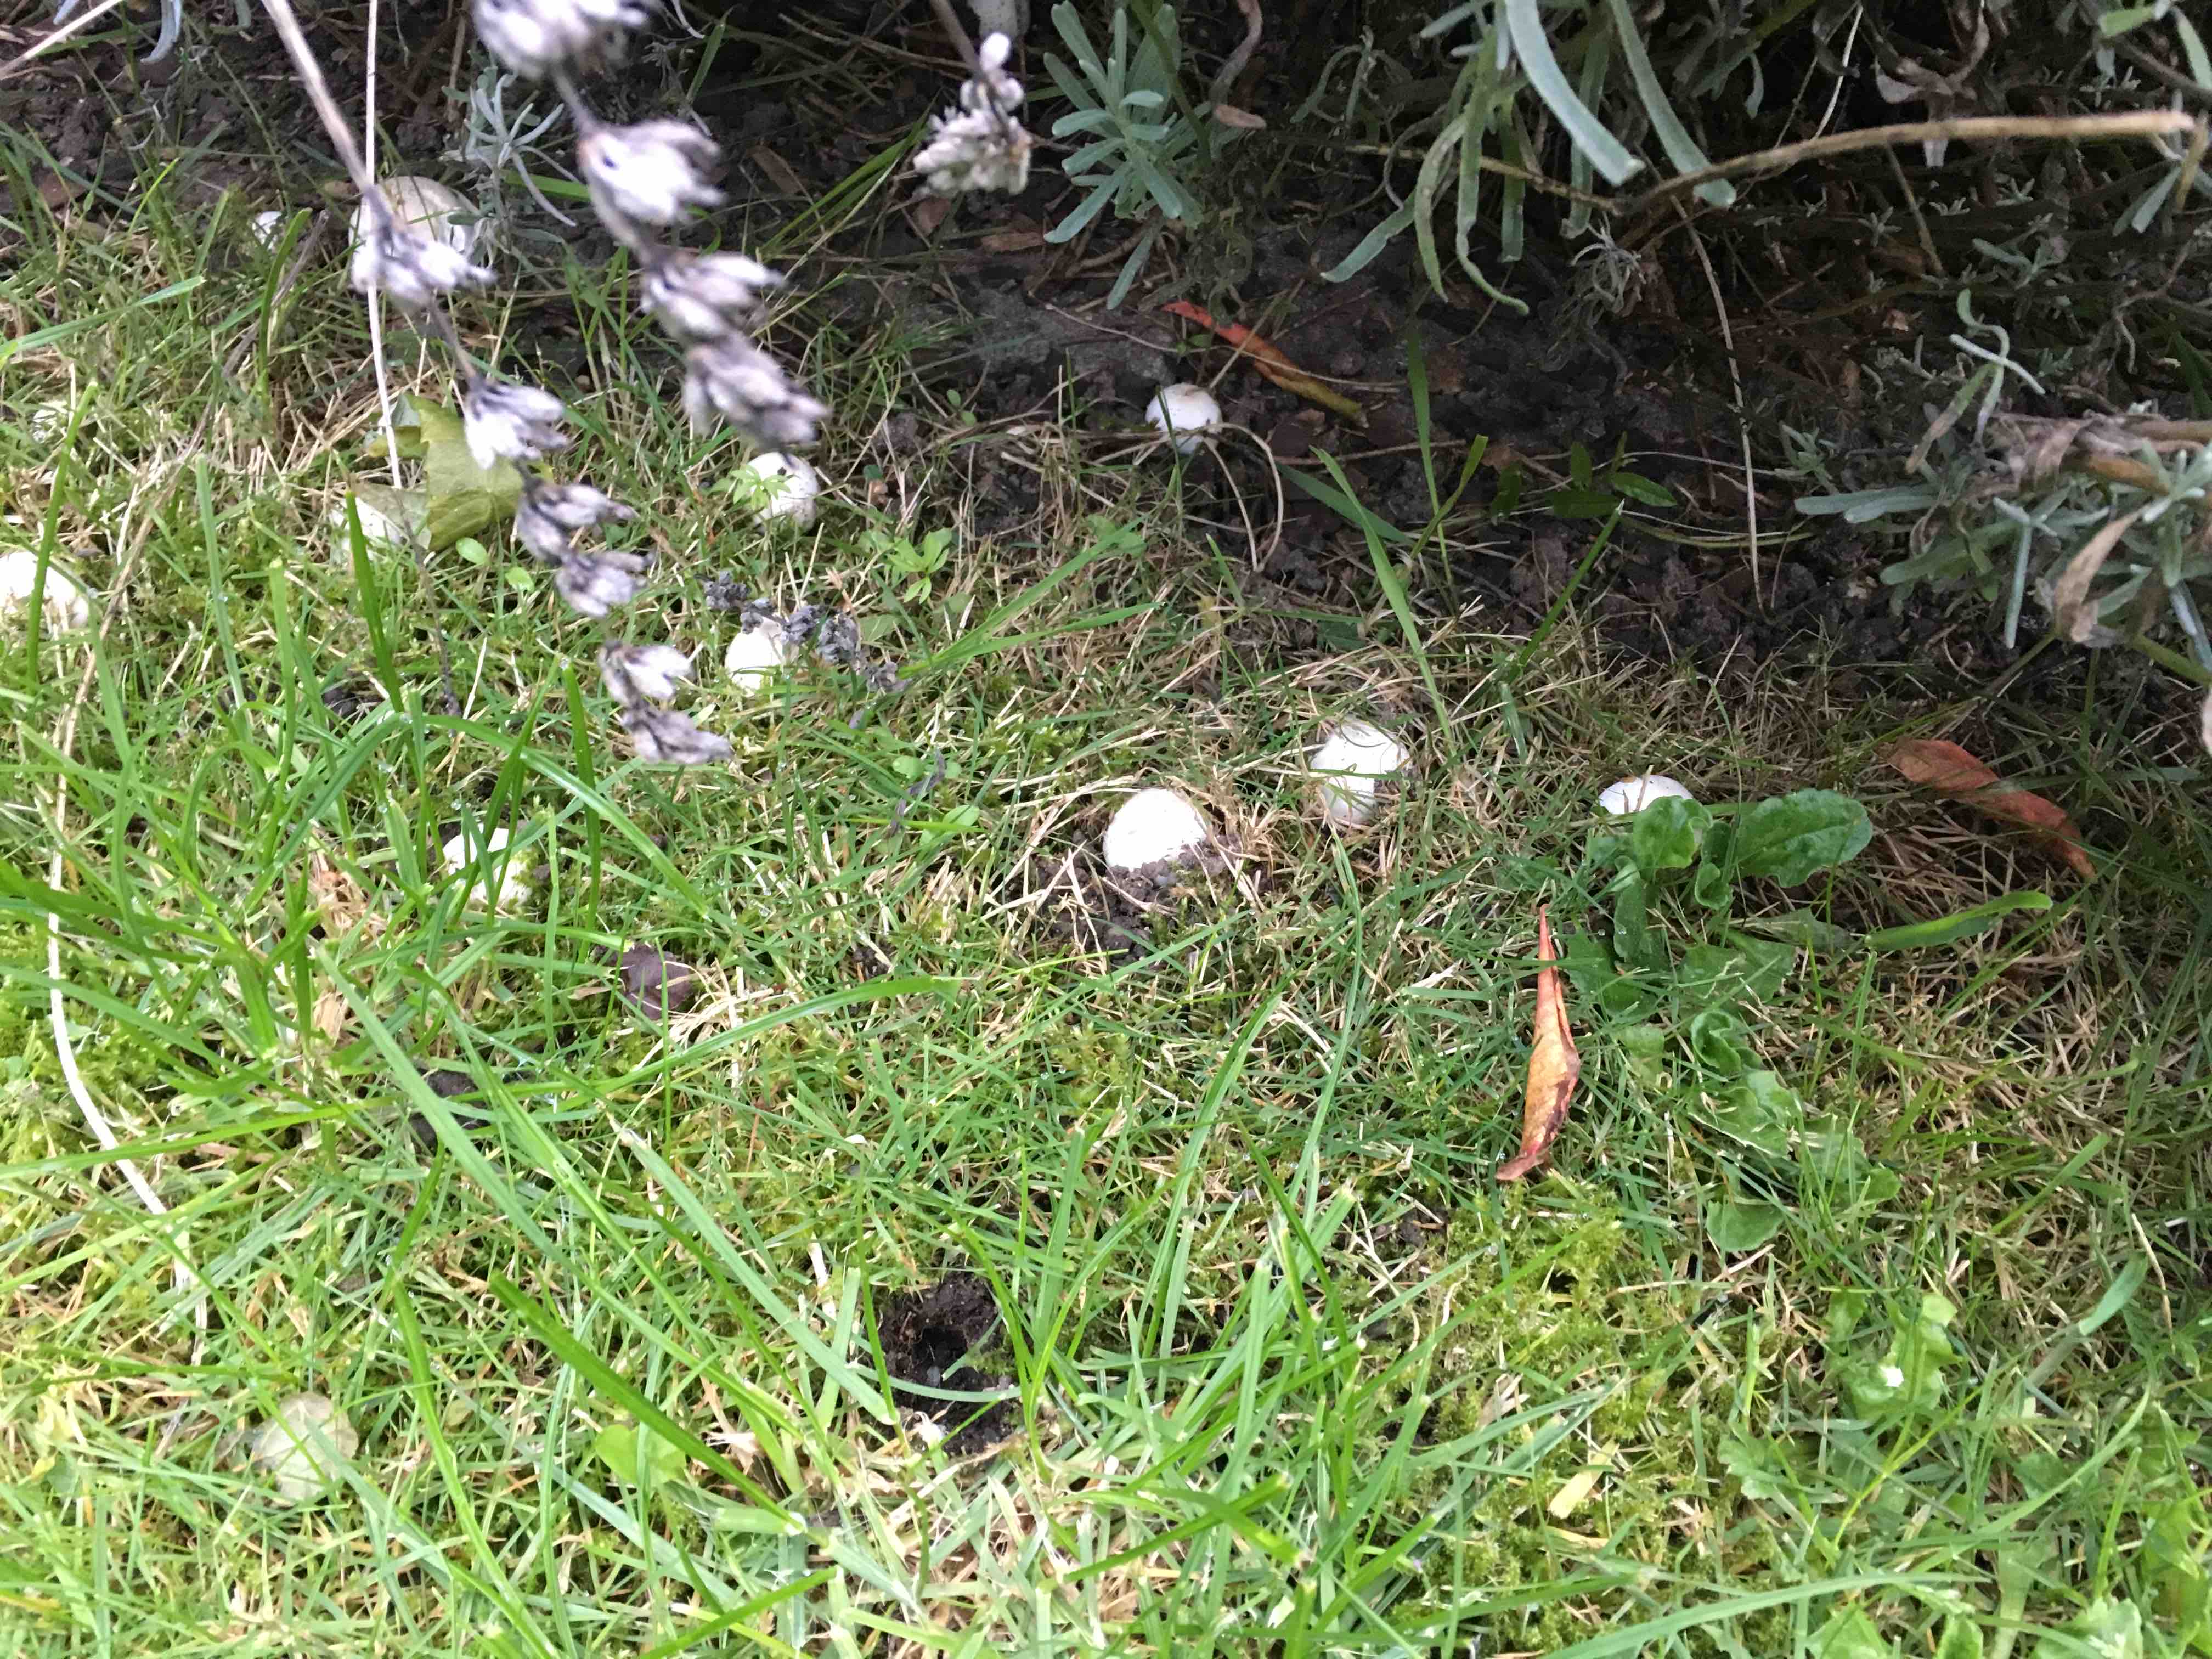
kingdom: Fungi
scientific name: Fungi
